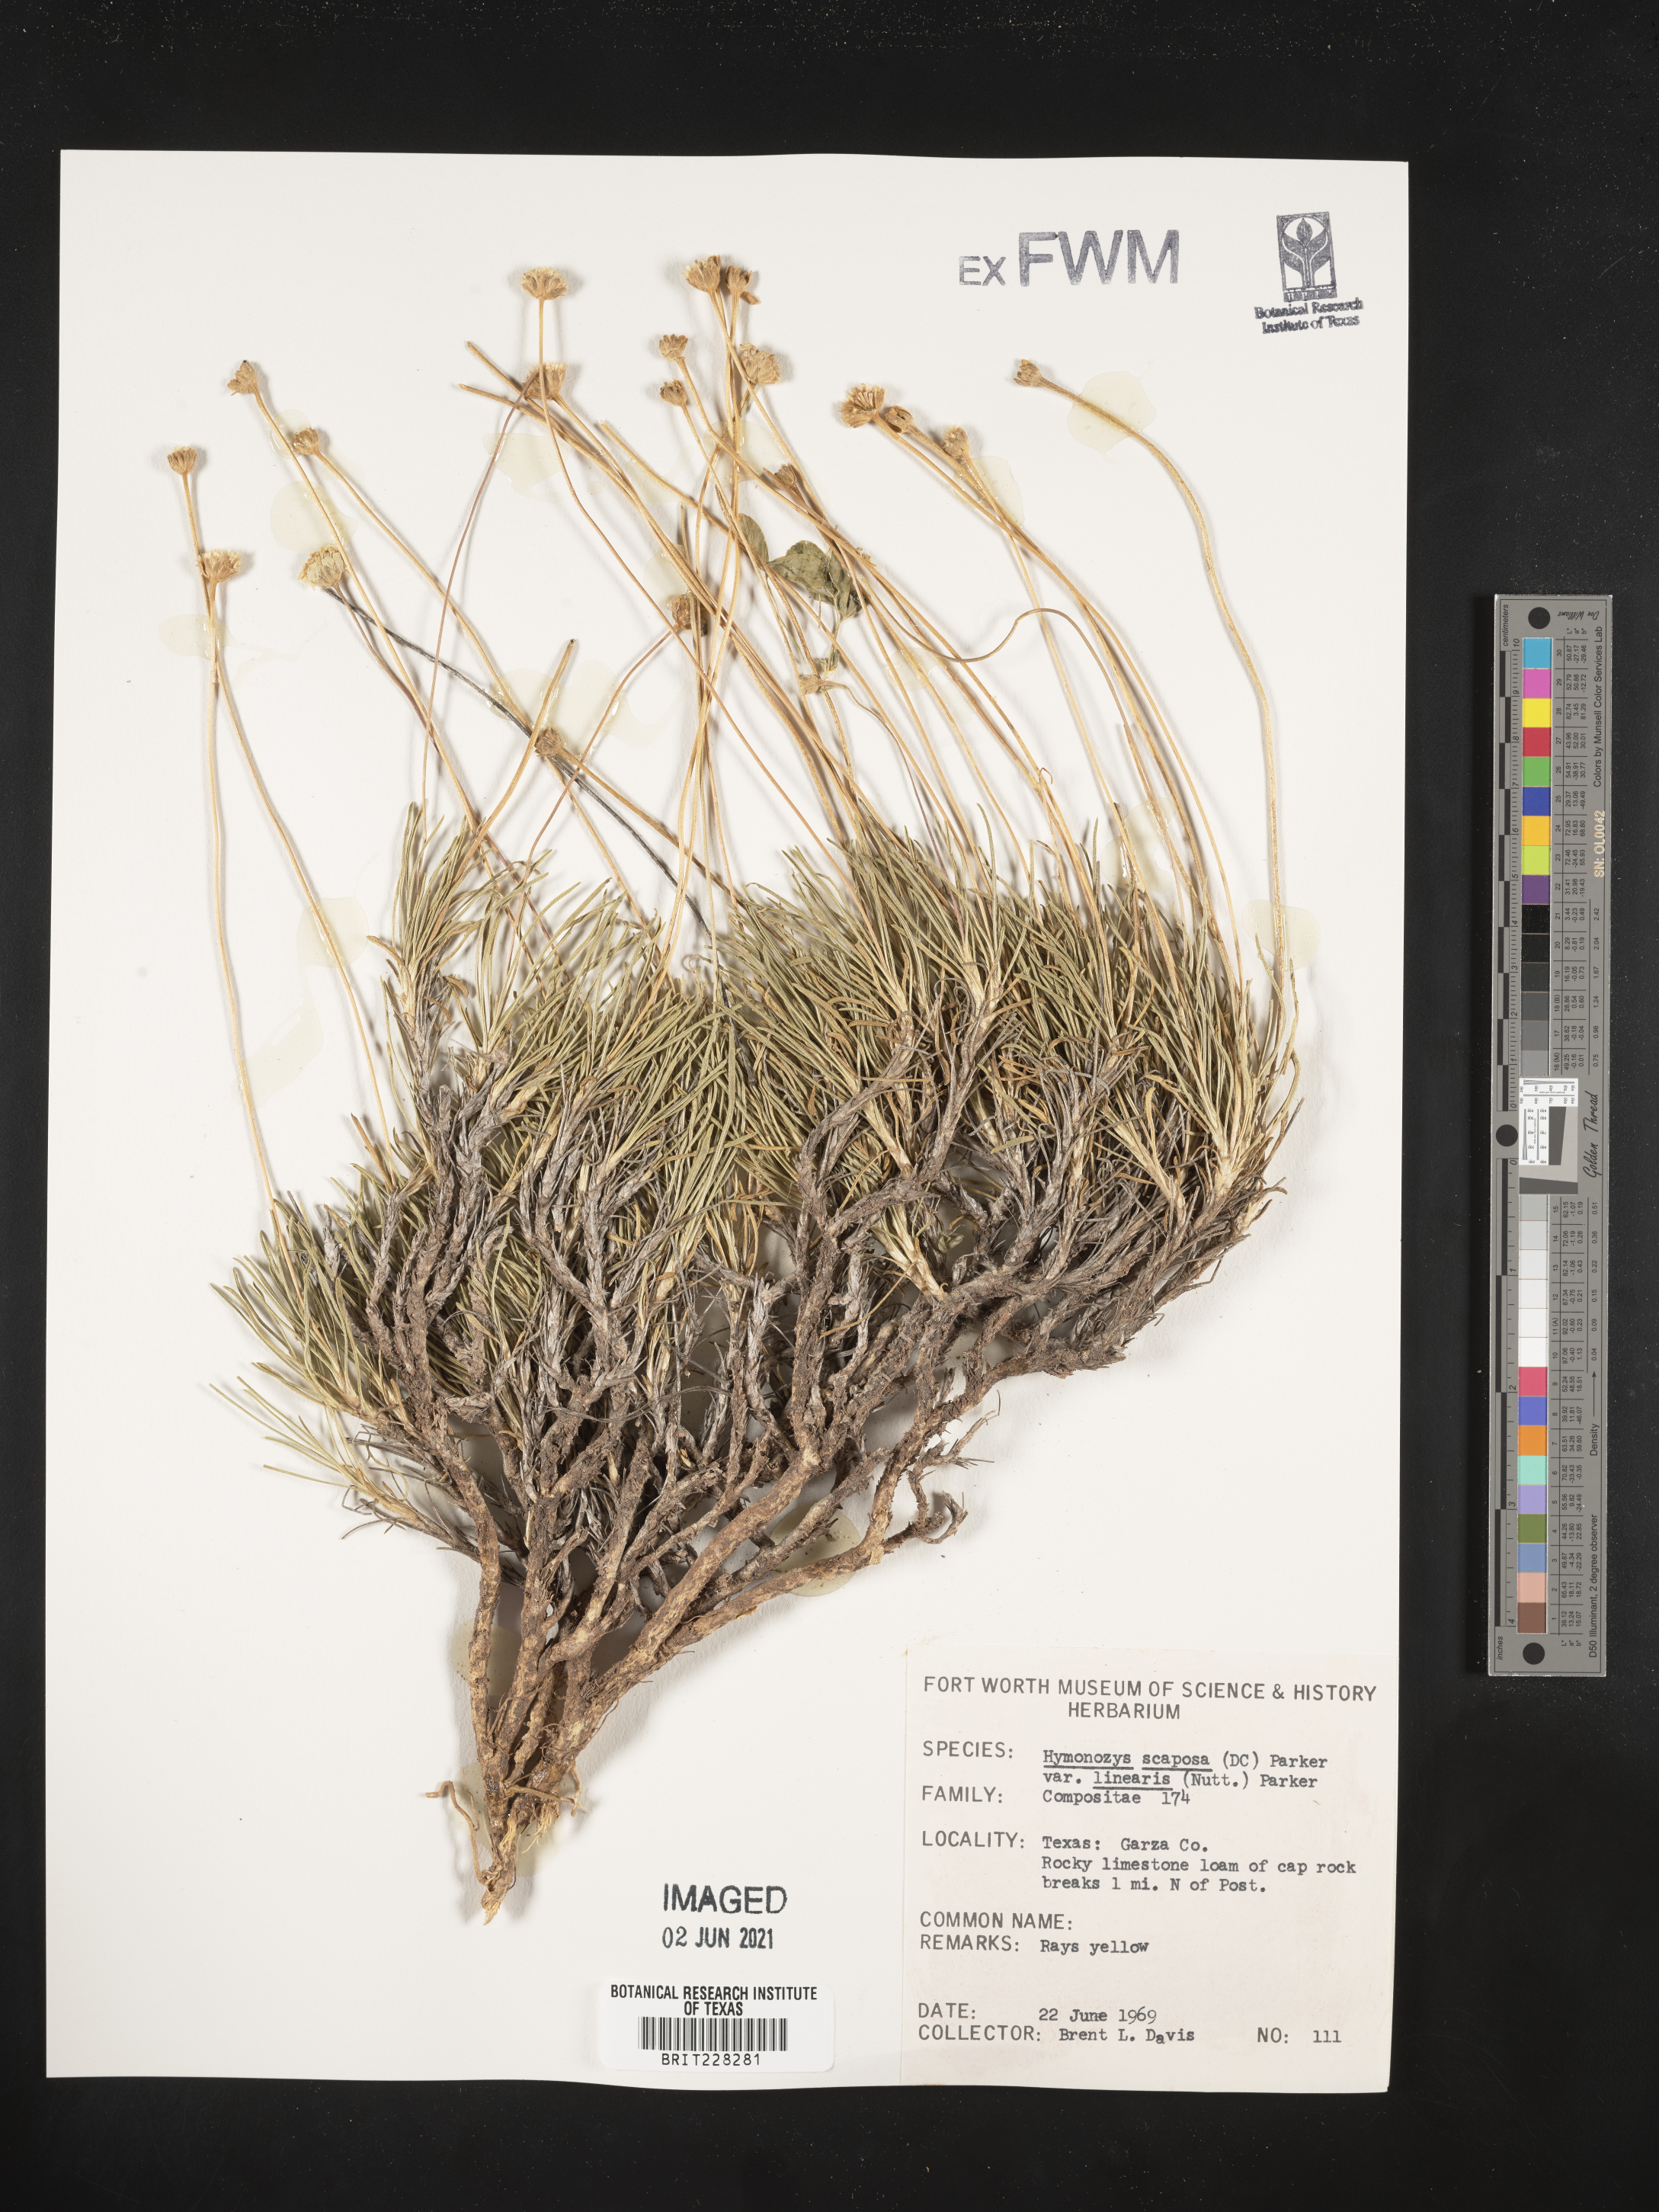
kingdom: Plantae
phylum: Tracheophyta
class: Magnoliopsida
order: Asterales
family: Asteraceae
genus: Tetraneuris
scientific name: Tetraneuris scaposa
